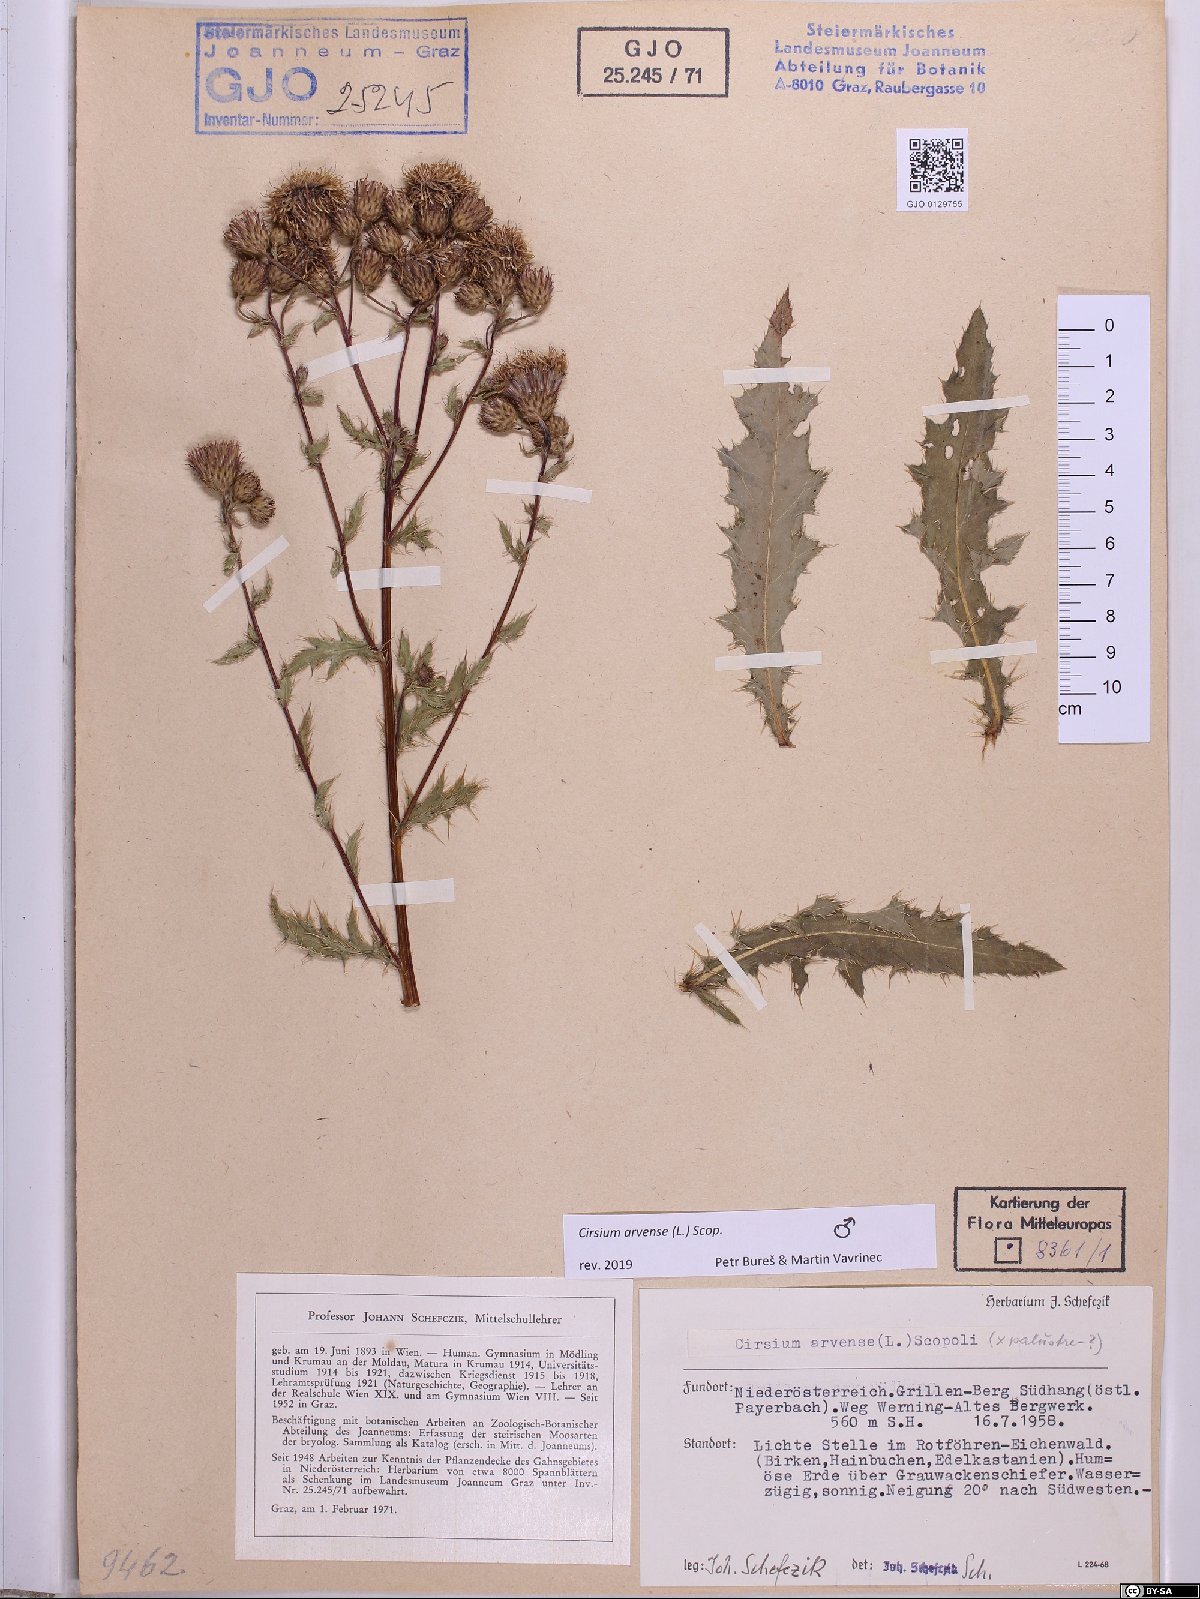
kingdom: Plantae
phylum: Tracheophyta
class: Magnoliopsida
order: Asterales
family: Asteraceae
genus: Cirsium
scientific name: Cirsium arvense
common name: Creeping thistle
